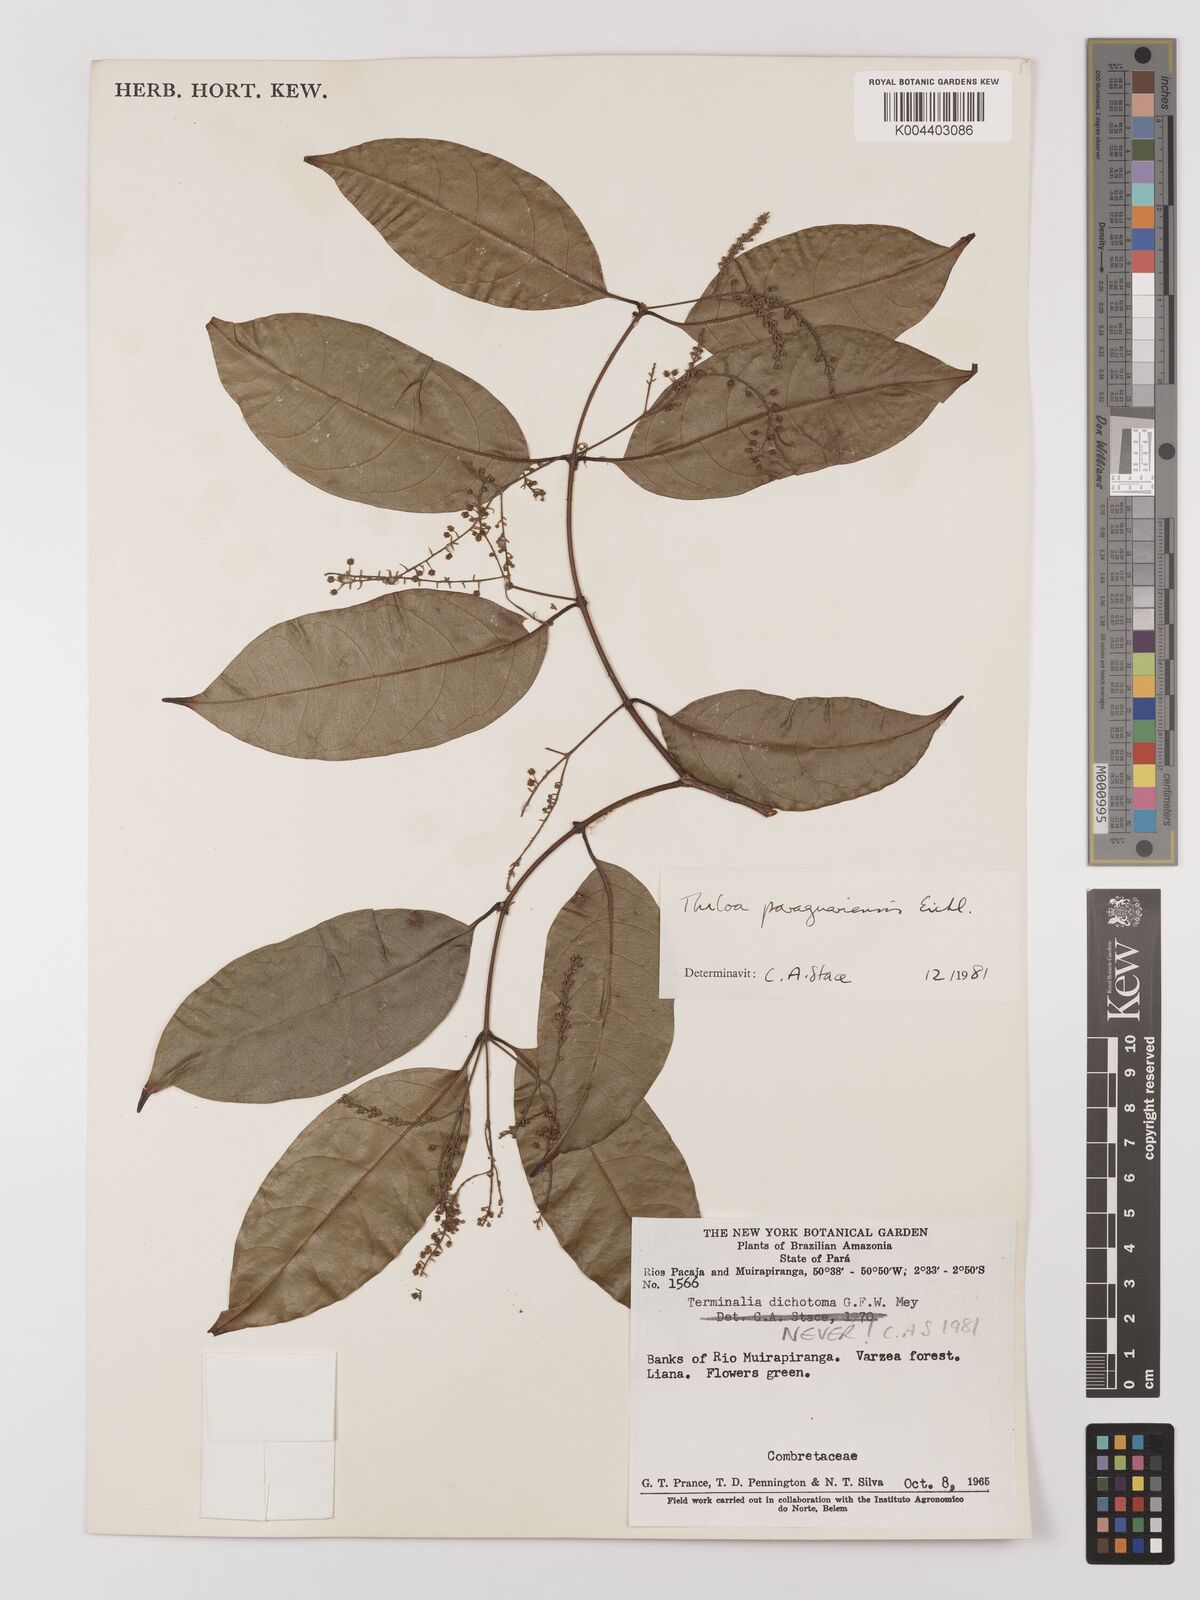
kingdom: Plantae
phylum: Tracheophyta
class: Magnoliopsida
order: Myrtales
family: Combretaceae
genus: Combretum
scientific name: Combretum paraguariense
